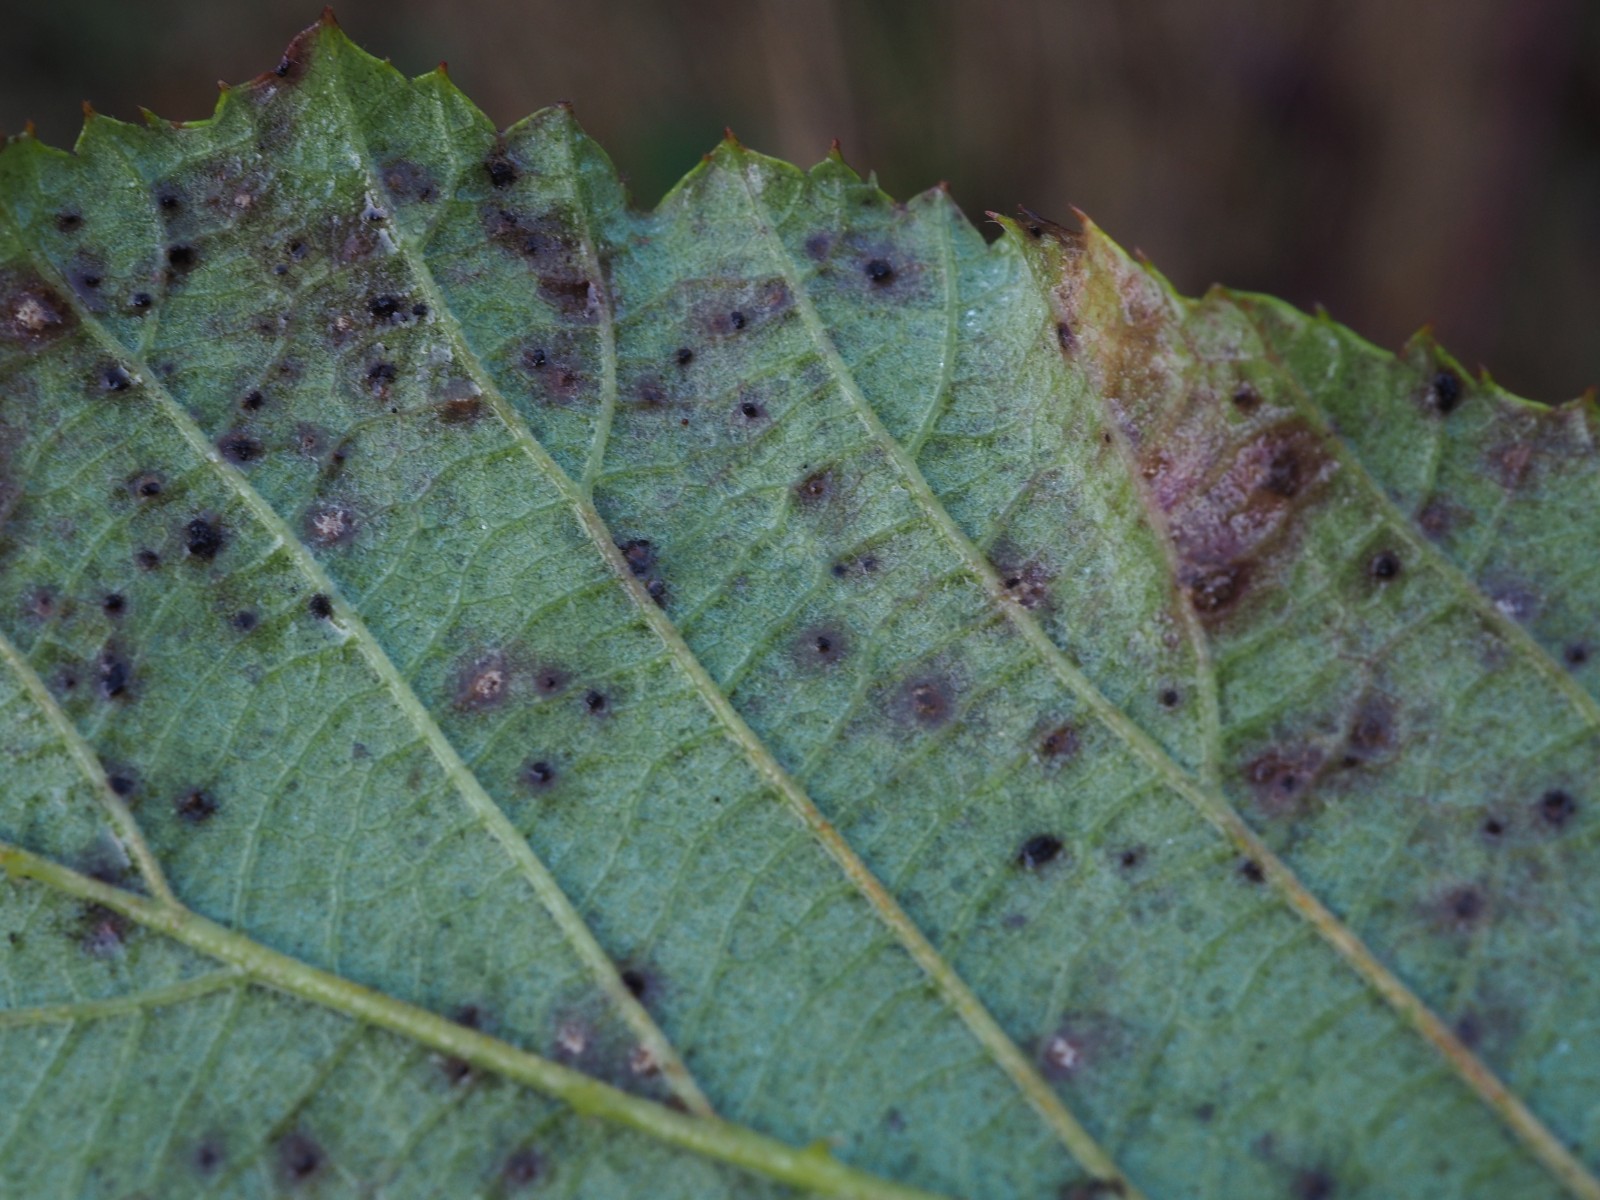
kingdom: Fungi
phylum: Basidiomycota
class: Pucciniomycetes
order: Pucciniales
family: Phragmidiaceae
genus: Phragmidium
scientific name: Phragmidium violaceum
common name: violet flercellerust
